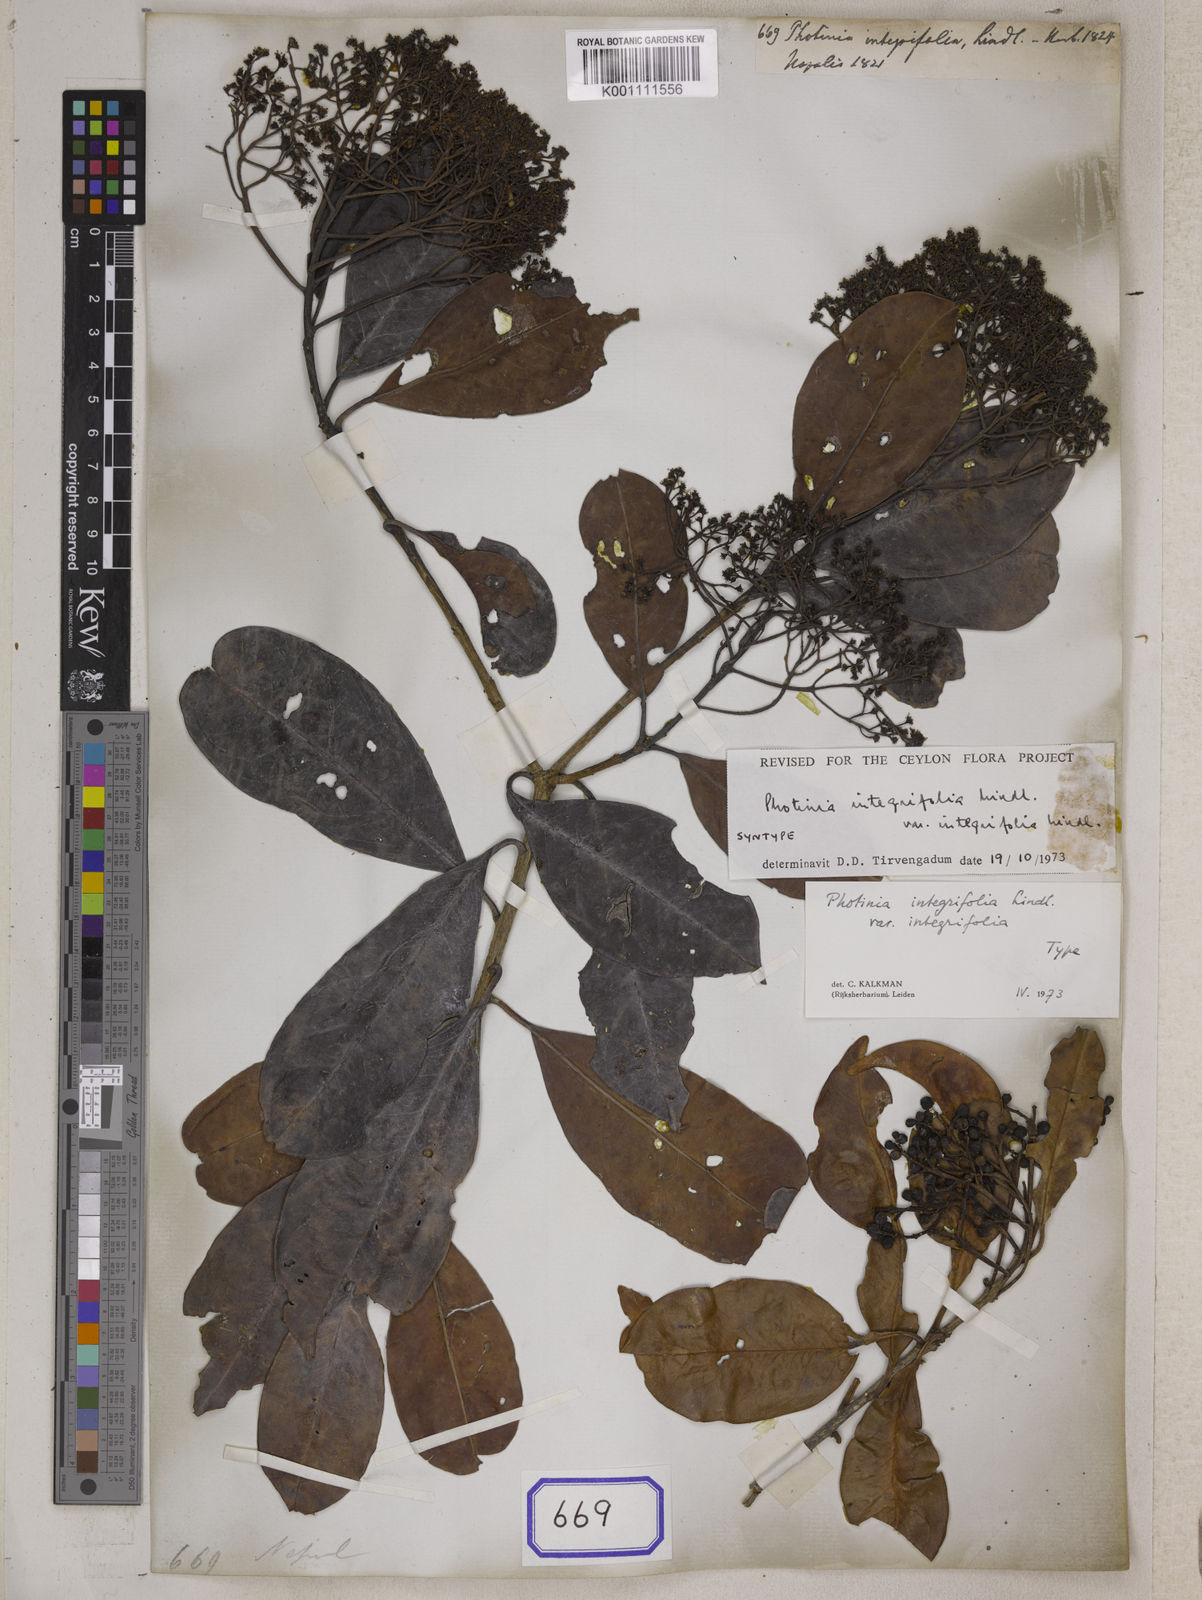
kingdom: Plantae
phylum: Tracheophyta
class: Magnoliopsida
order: Rosales
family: Rosaceae
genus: Photinia
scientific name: Photinia integrifolia
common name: Himalayan chokeberry
